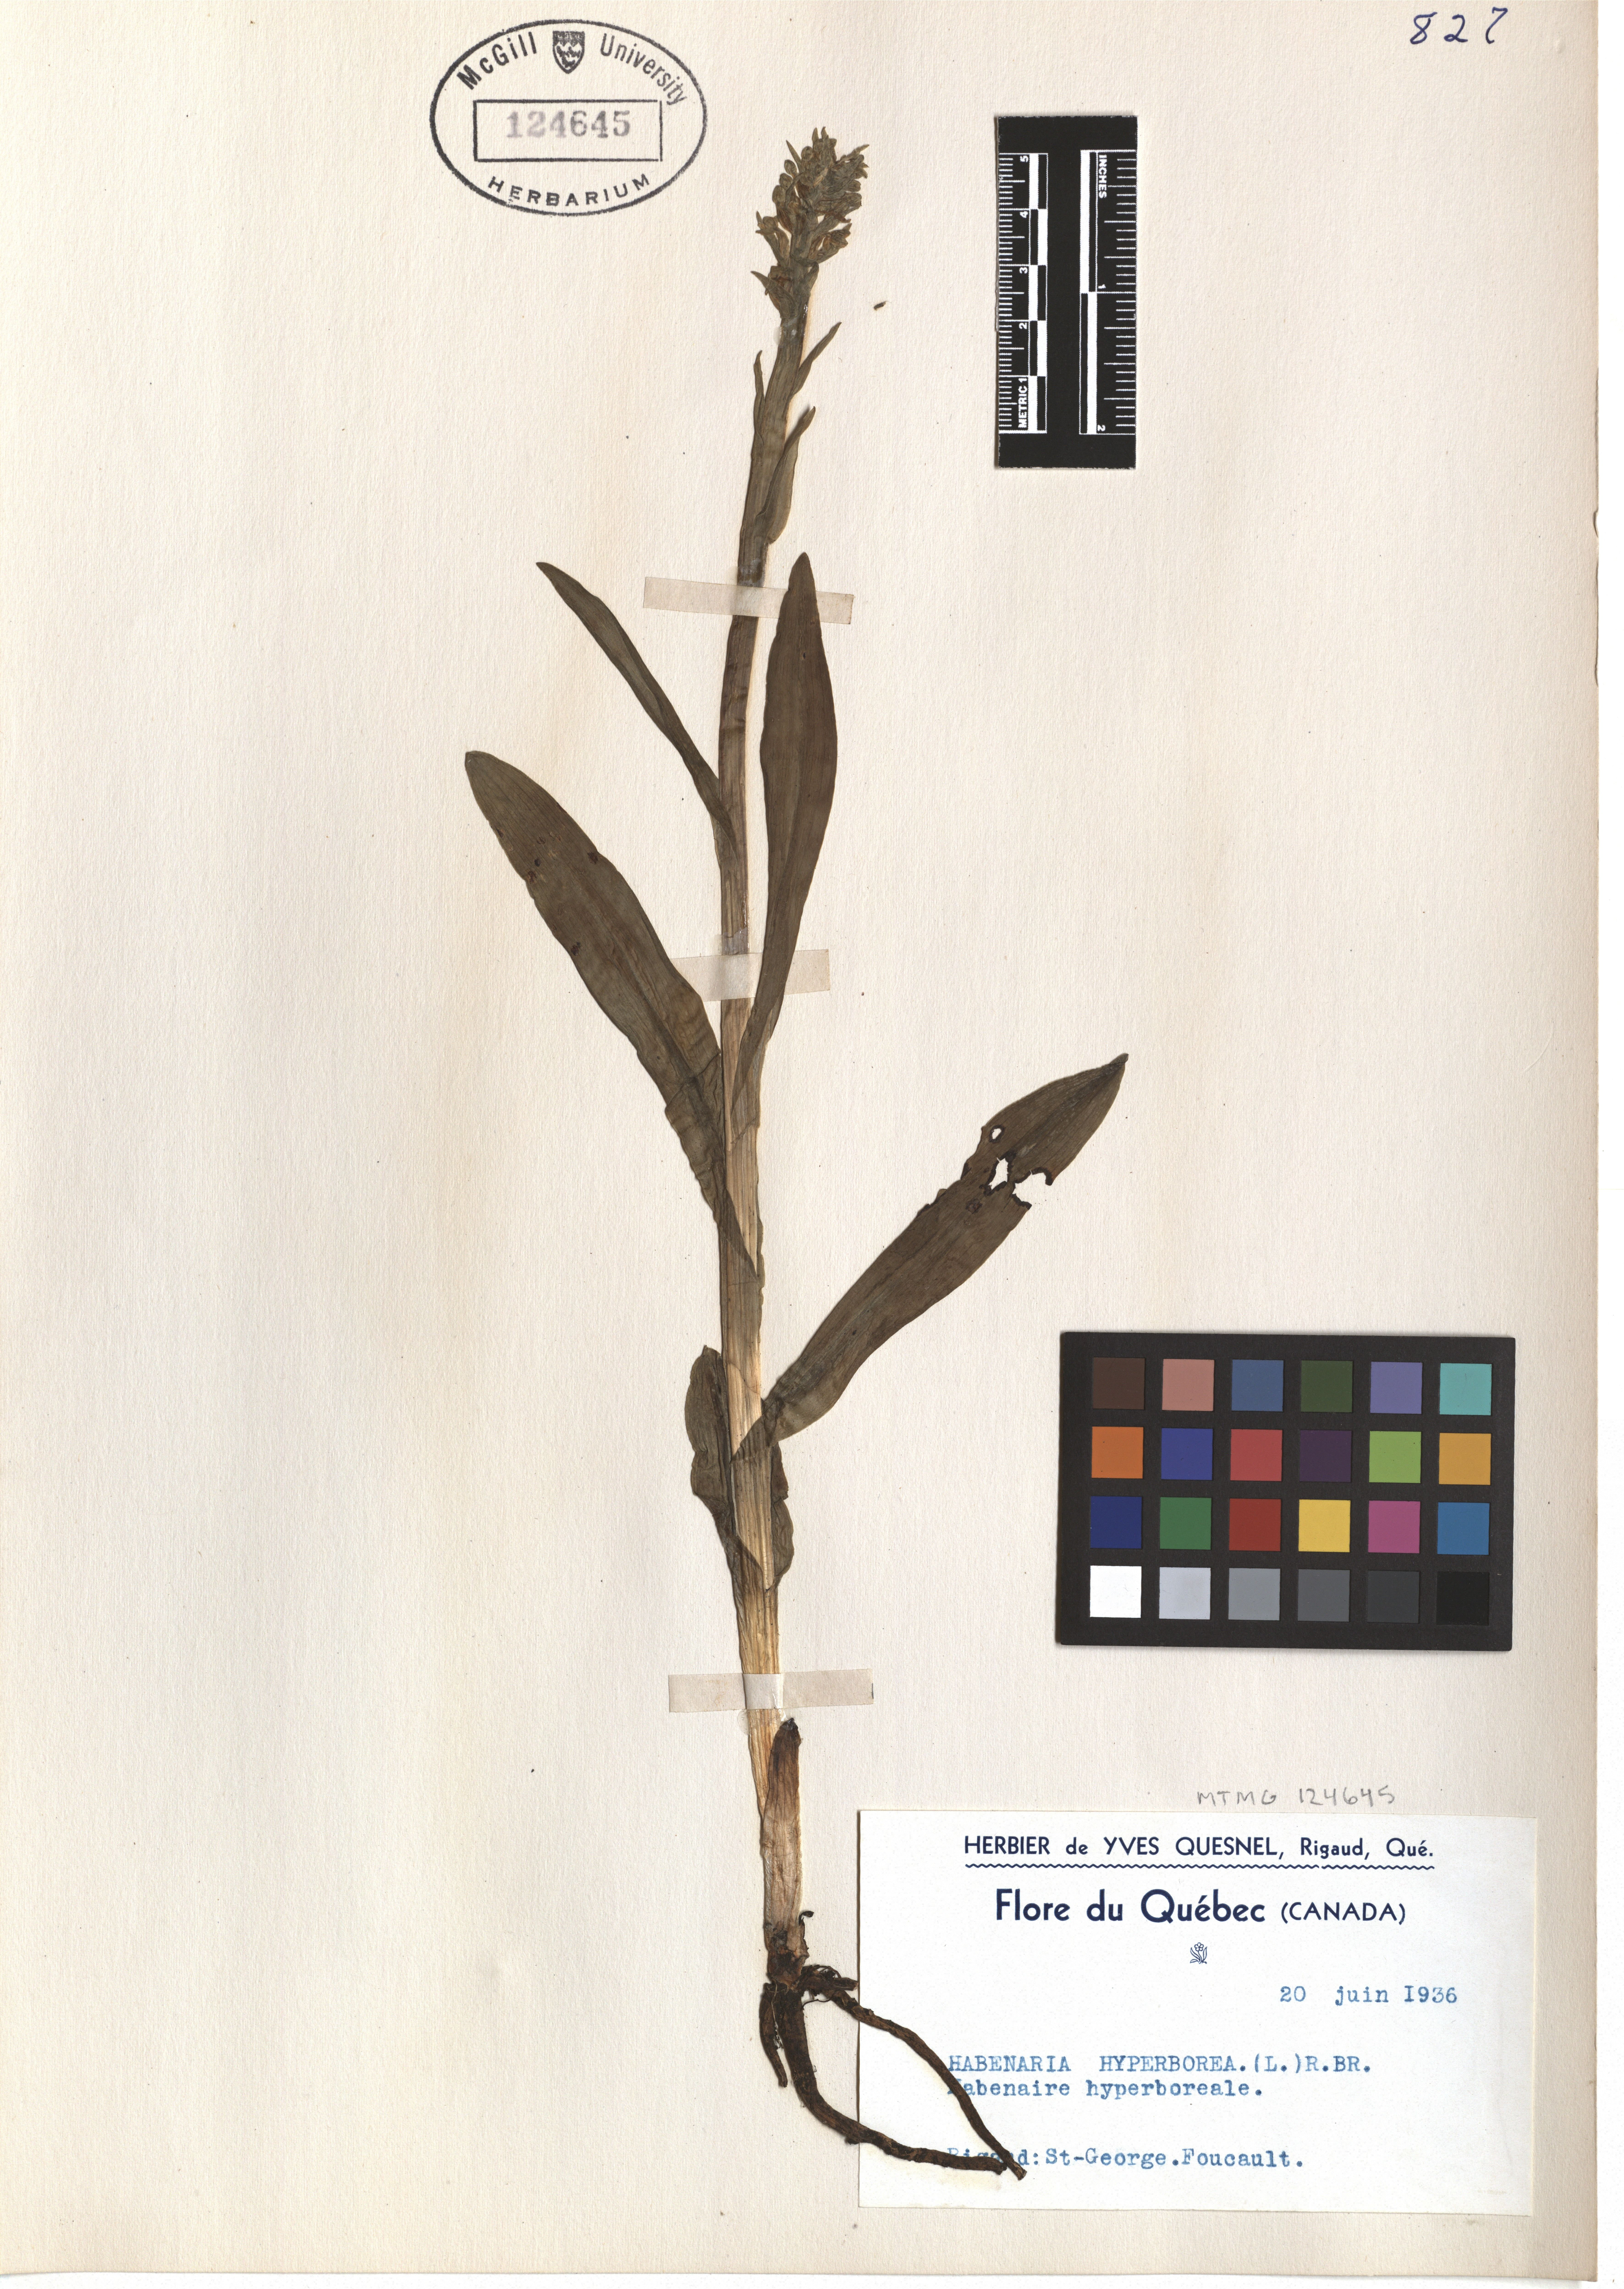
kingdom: Plantae
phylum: Tracheophyta
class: Liliopsida
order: Asparagales
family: Orchidaceae
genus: Platanthera
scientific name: Platanthera hyperborea
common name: Northern green orchid
